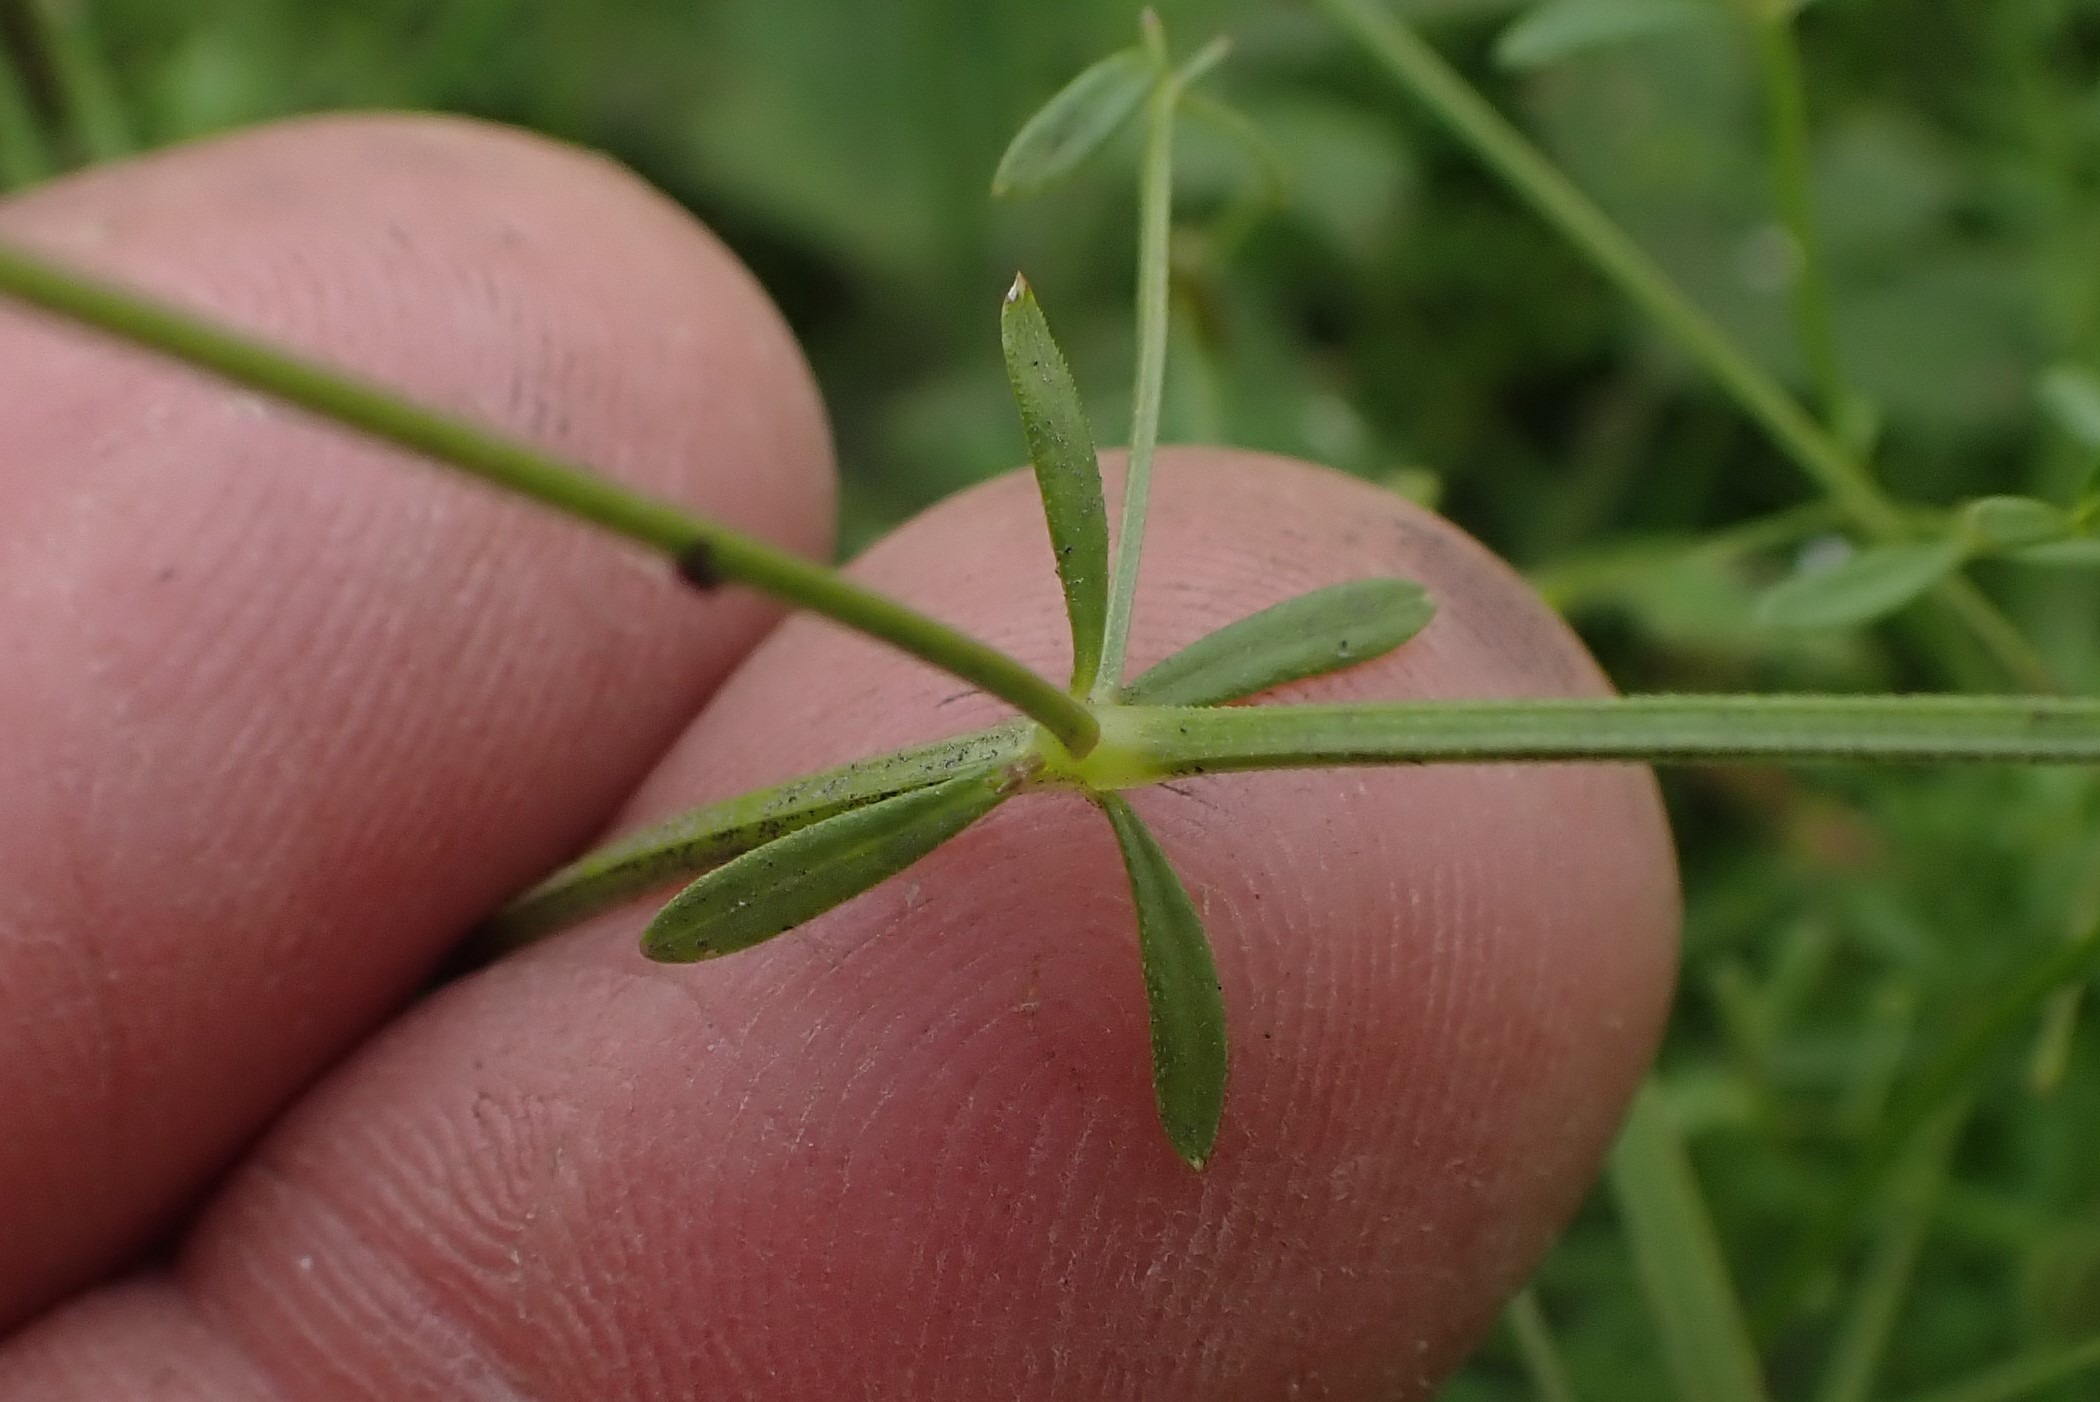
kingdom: Plantae
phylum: Tracheophyta
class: Magnoliopsida
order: Gentianales
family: Rubiaceae
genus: Galium
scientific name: Galium palustre
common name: Kær-snerre
